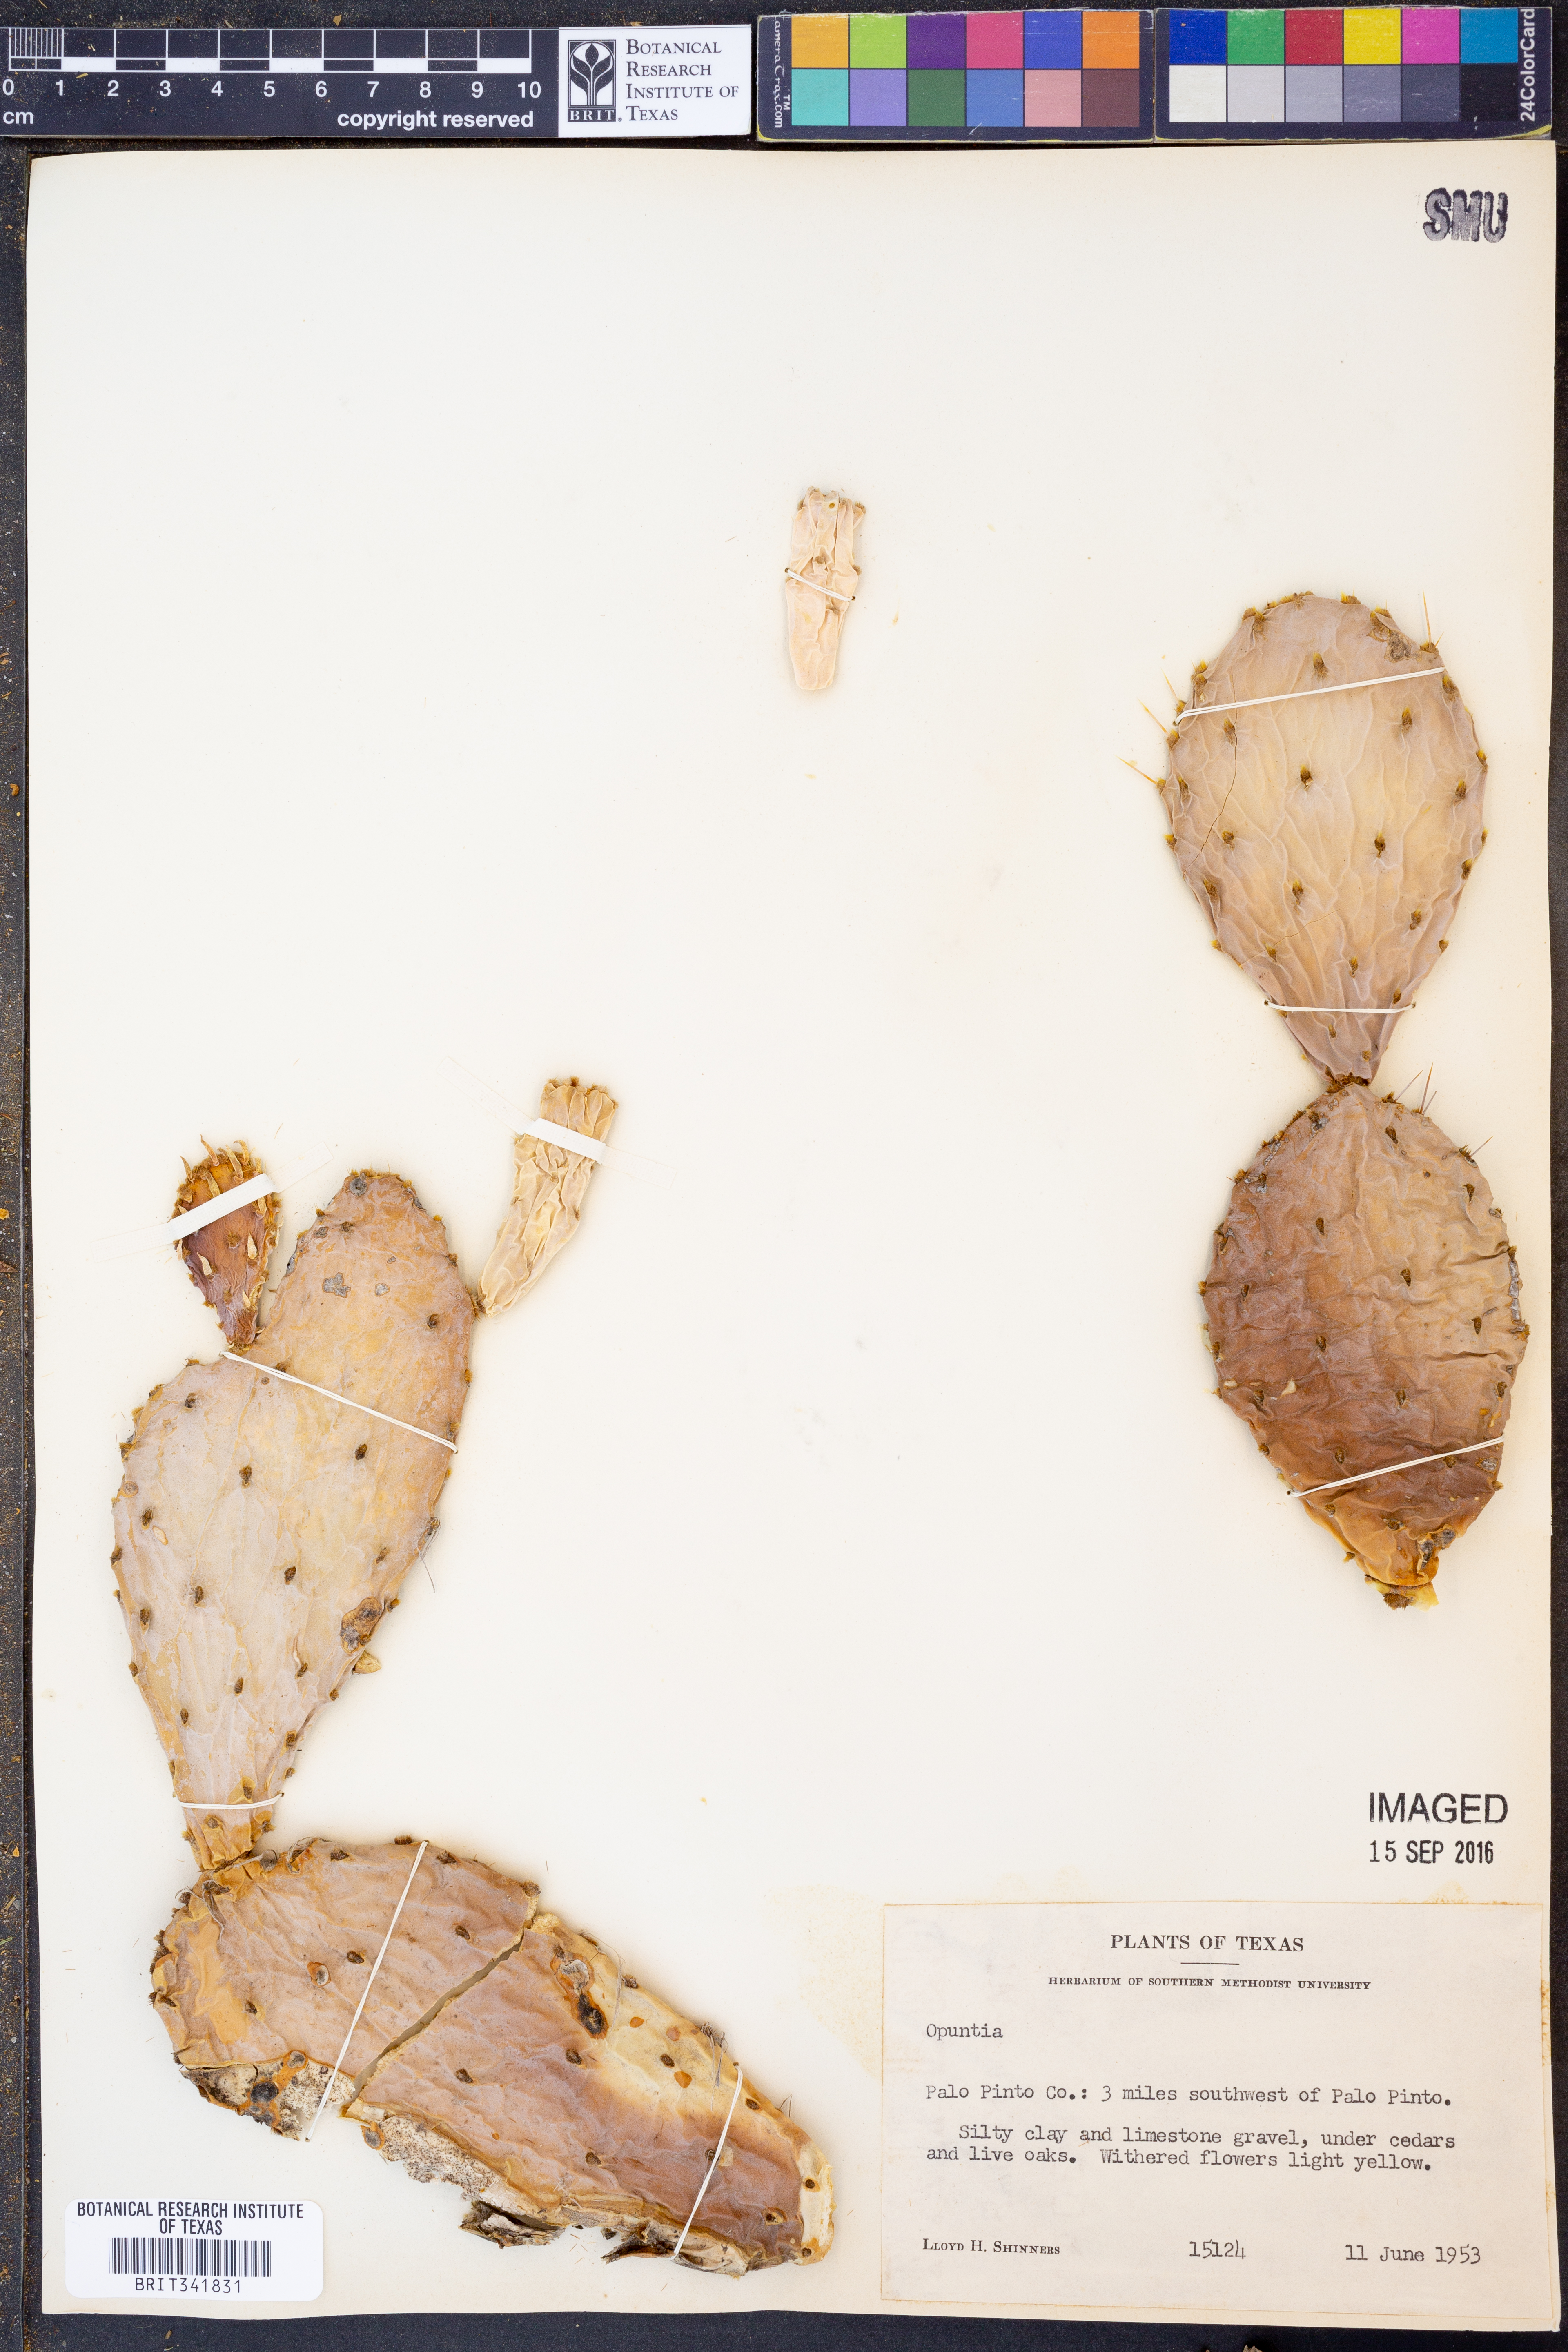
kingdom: Plantae
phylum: Tracheophyta
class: Magnoliopsida
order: Caryophyllales
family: Cactaceae
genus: Opuntia
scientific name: Opuntia
